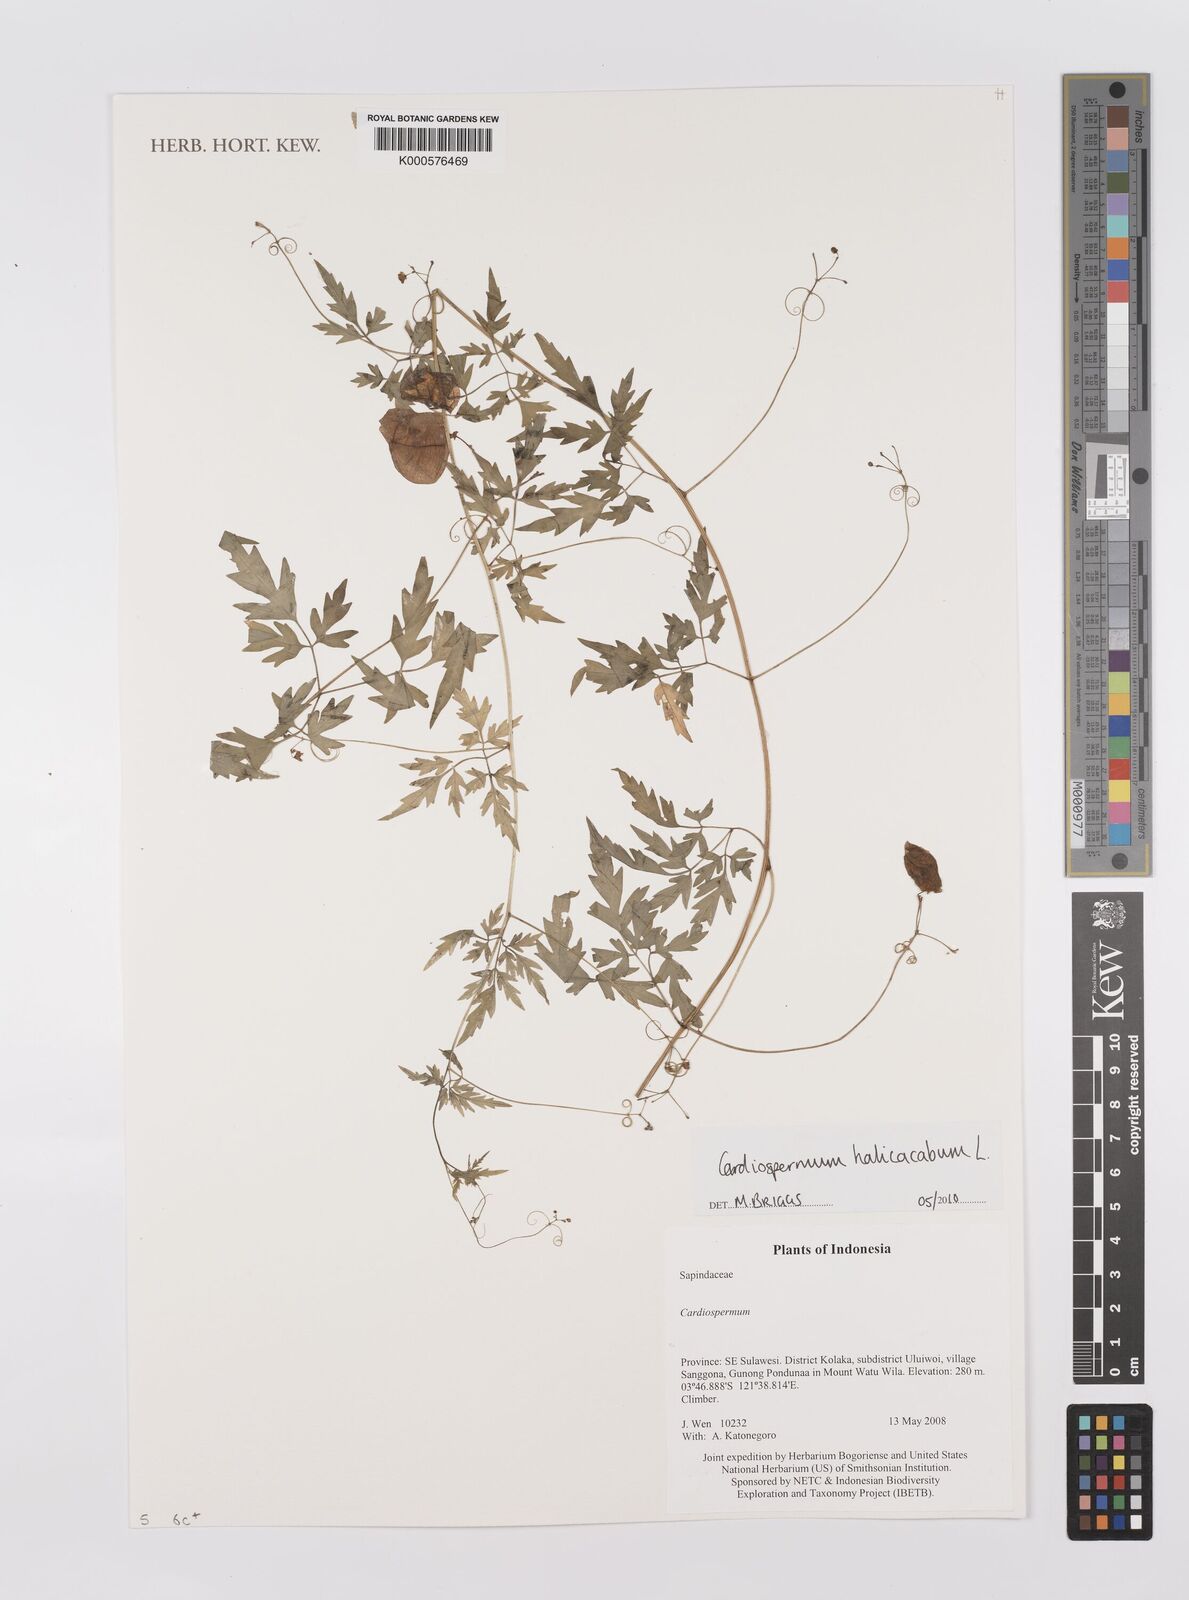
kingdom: Plantae
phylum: Tracheophyta
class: Magnoliopsida
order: Sapindales
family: Sapindaceae
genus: Cardiospermum
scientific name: Cardiospermum halicacabum
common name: Balloon vine
